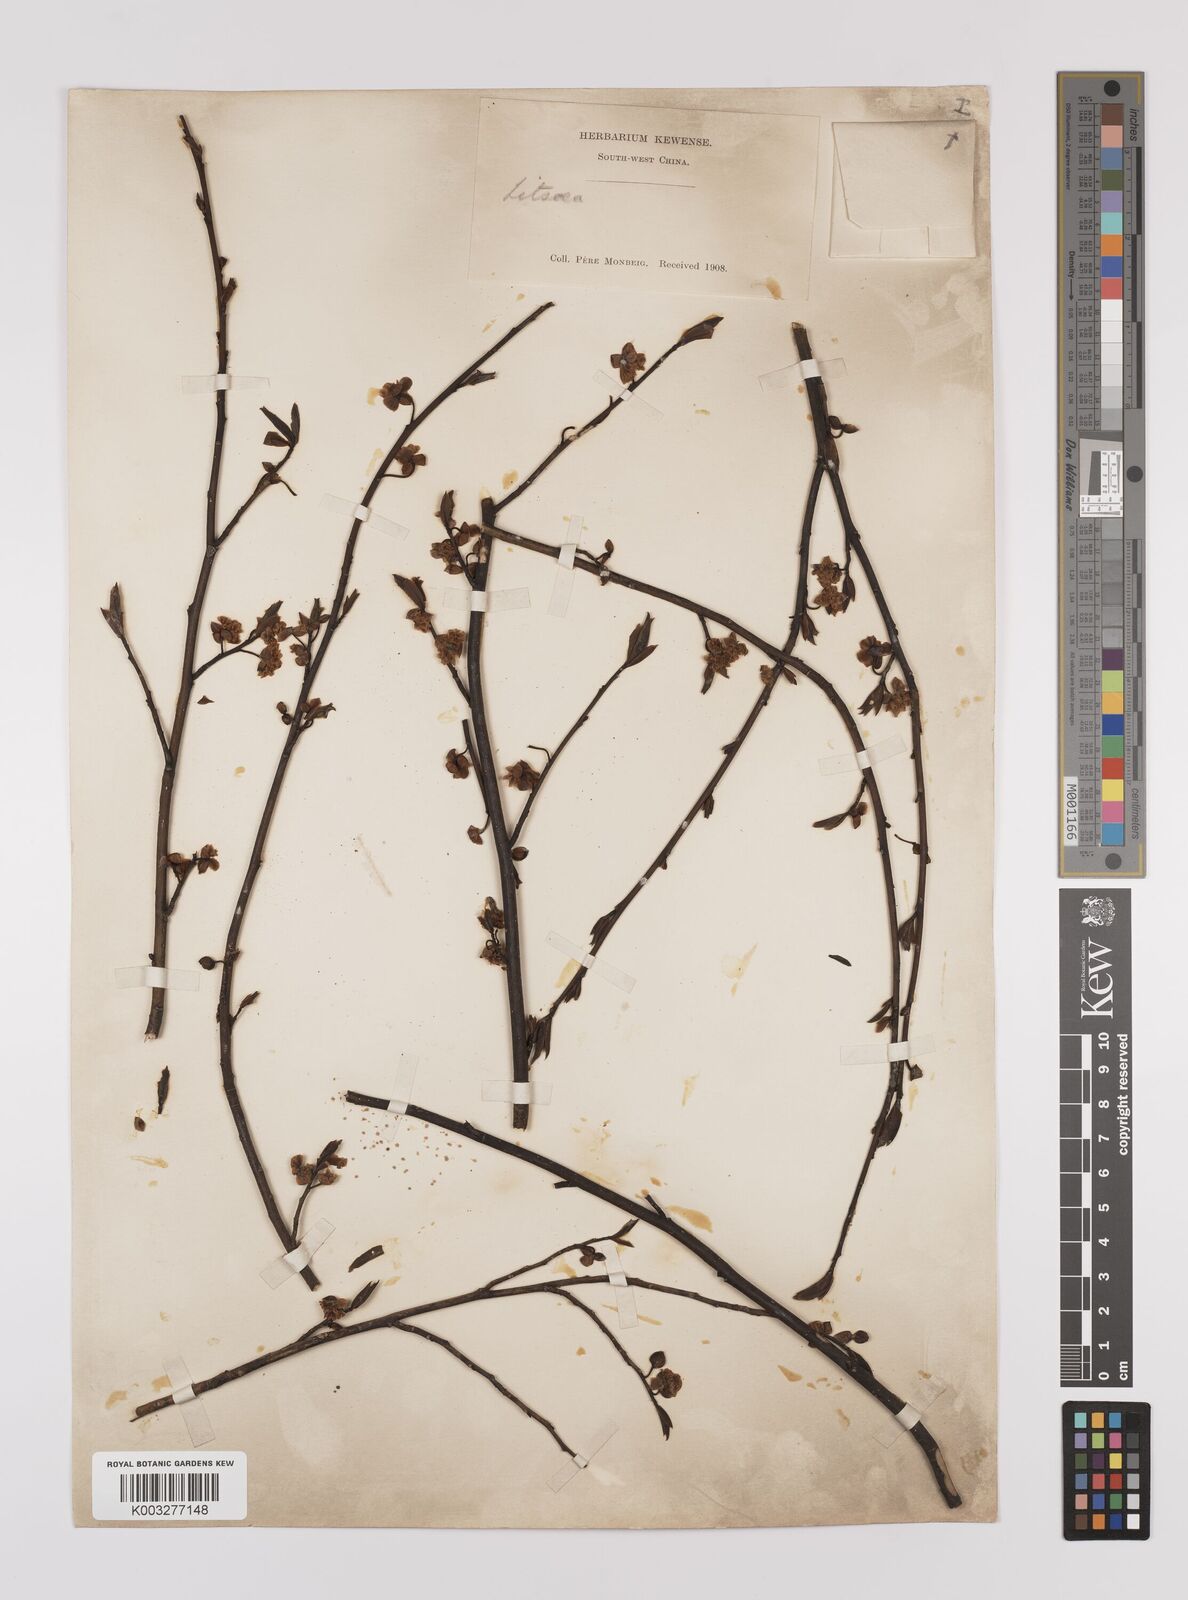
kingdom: Plantae
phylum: Tracheophyta
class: Magnoliopsida
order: Laurales
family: Lauraceae
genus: Litsea
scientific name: Litsea cubeba
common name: Mountain-pepper
